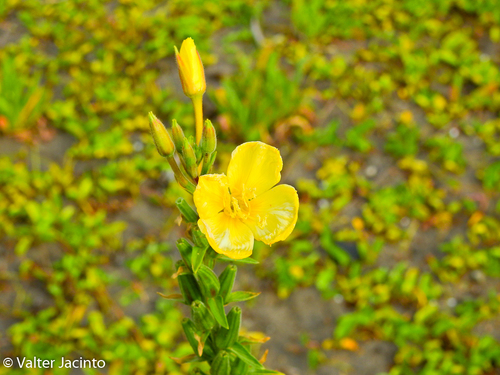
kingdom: Plantae
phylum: Tracheophyta
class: Magnoliopsida
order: Myrtales
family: Onagraceae
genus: Oenothera
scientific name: Oenothera stricta
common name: Fragrant evening-primrose
